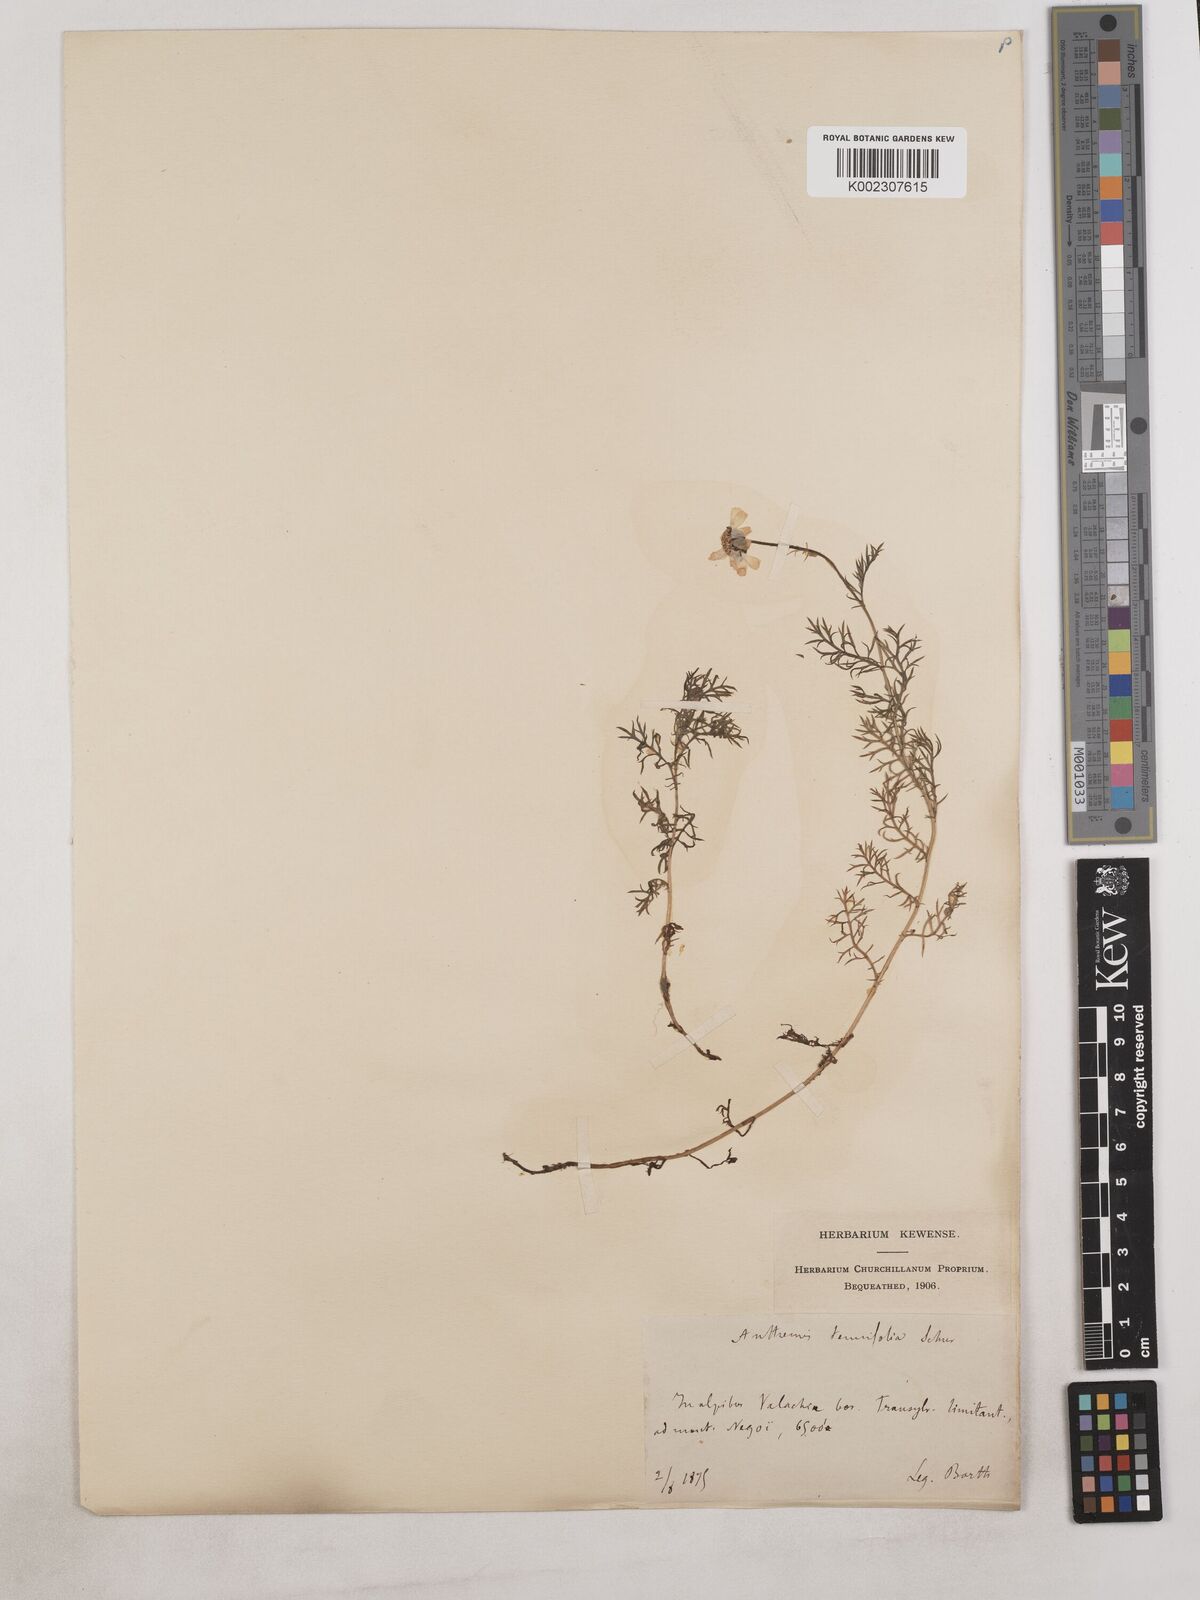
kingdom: Plantae
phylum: Tracheophyta
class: Magnoliopsida
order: Asterales
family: Asteraceae
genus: Achillea
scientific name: Achillea millefolium
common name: Yarrow
